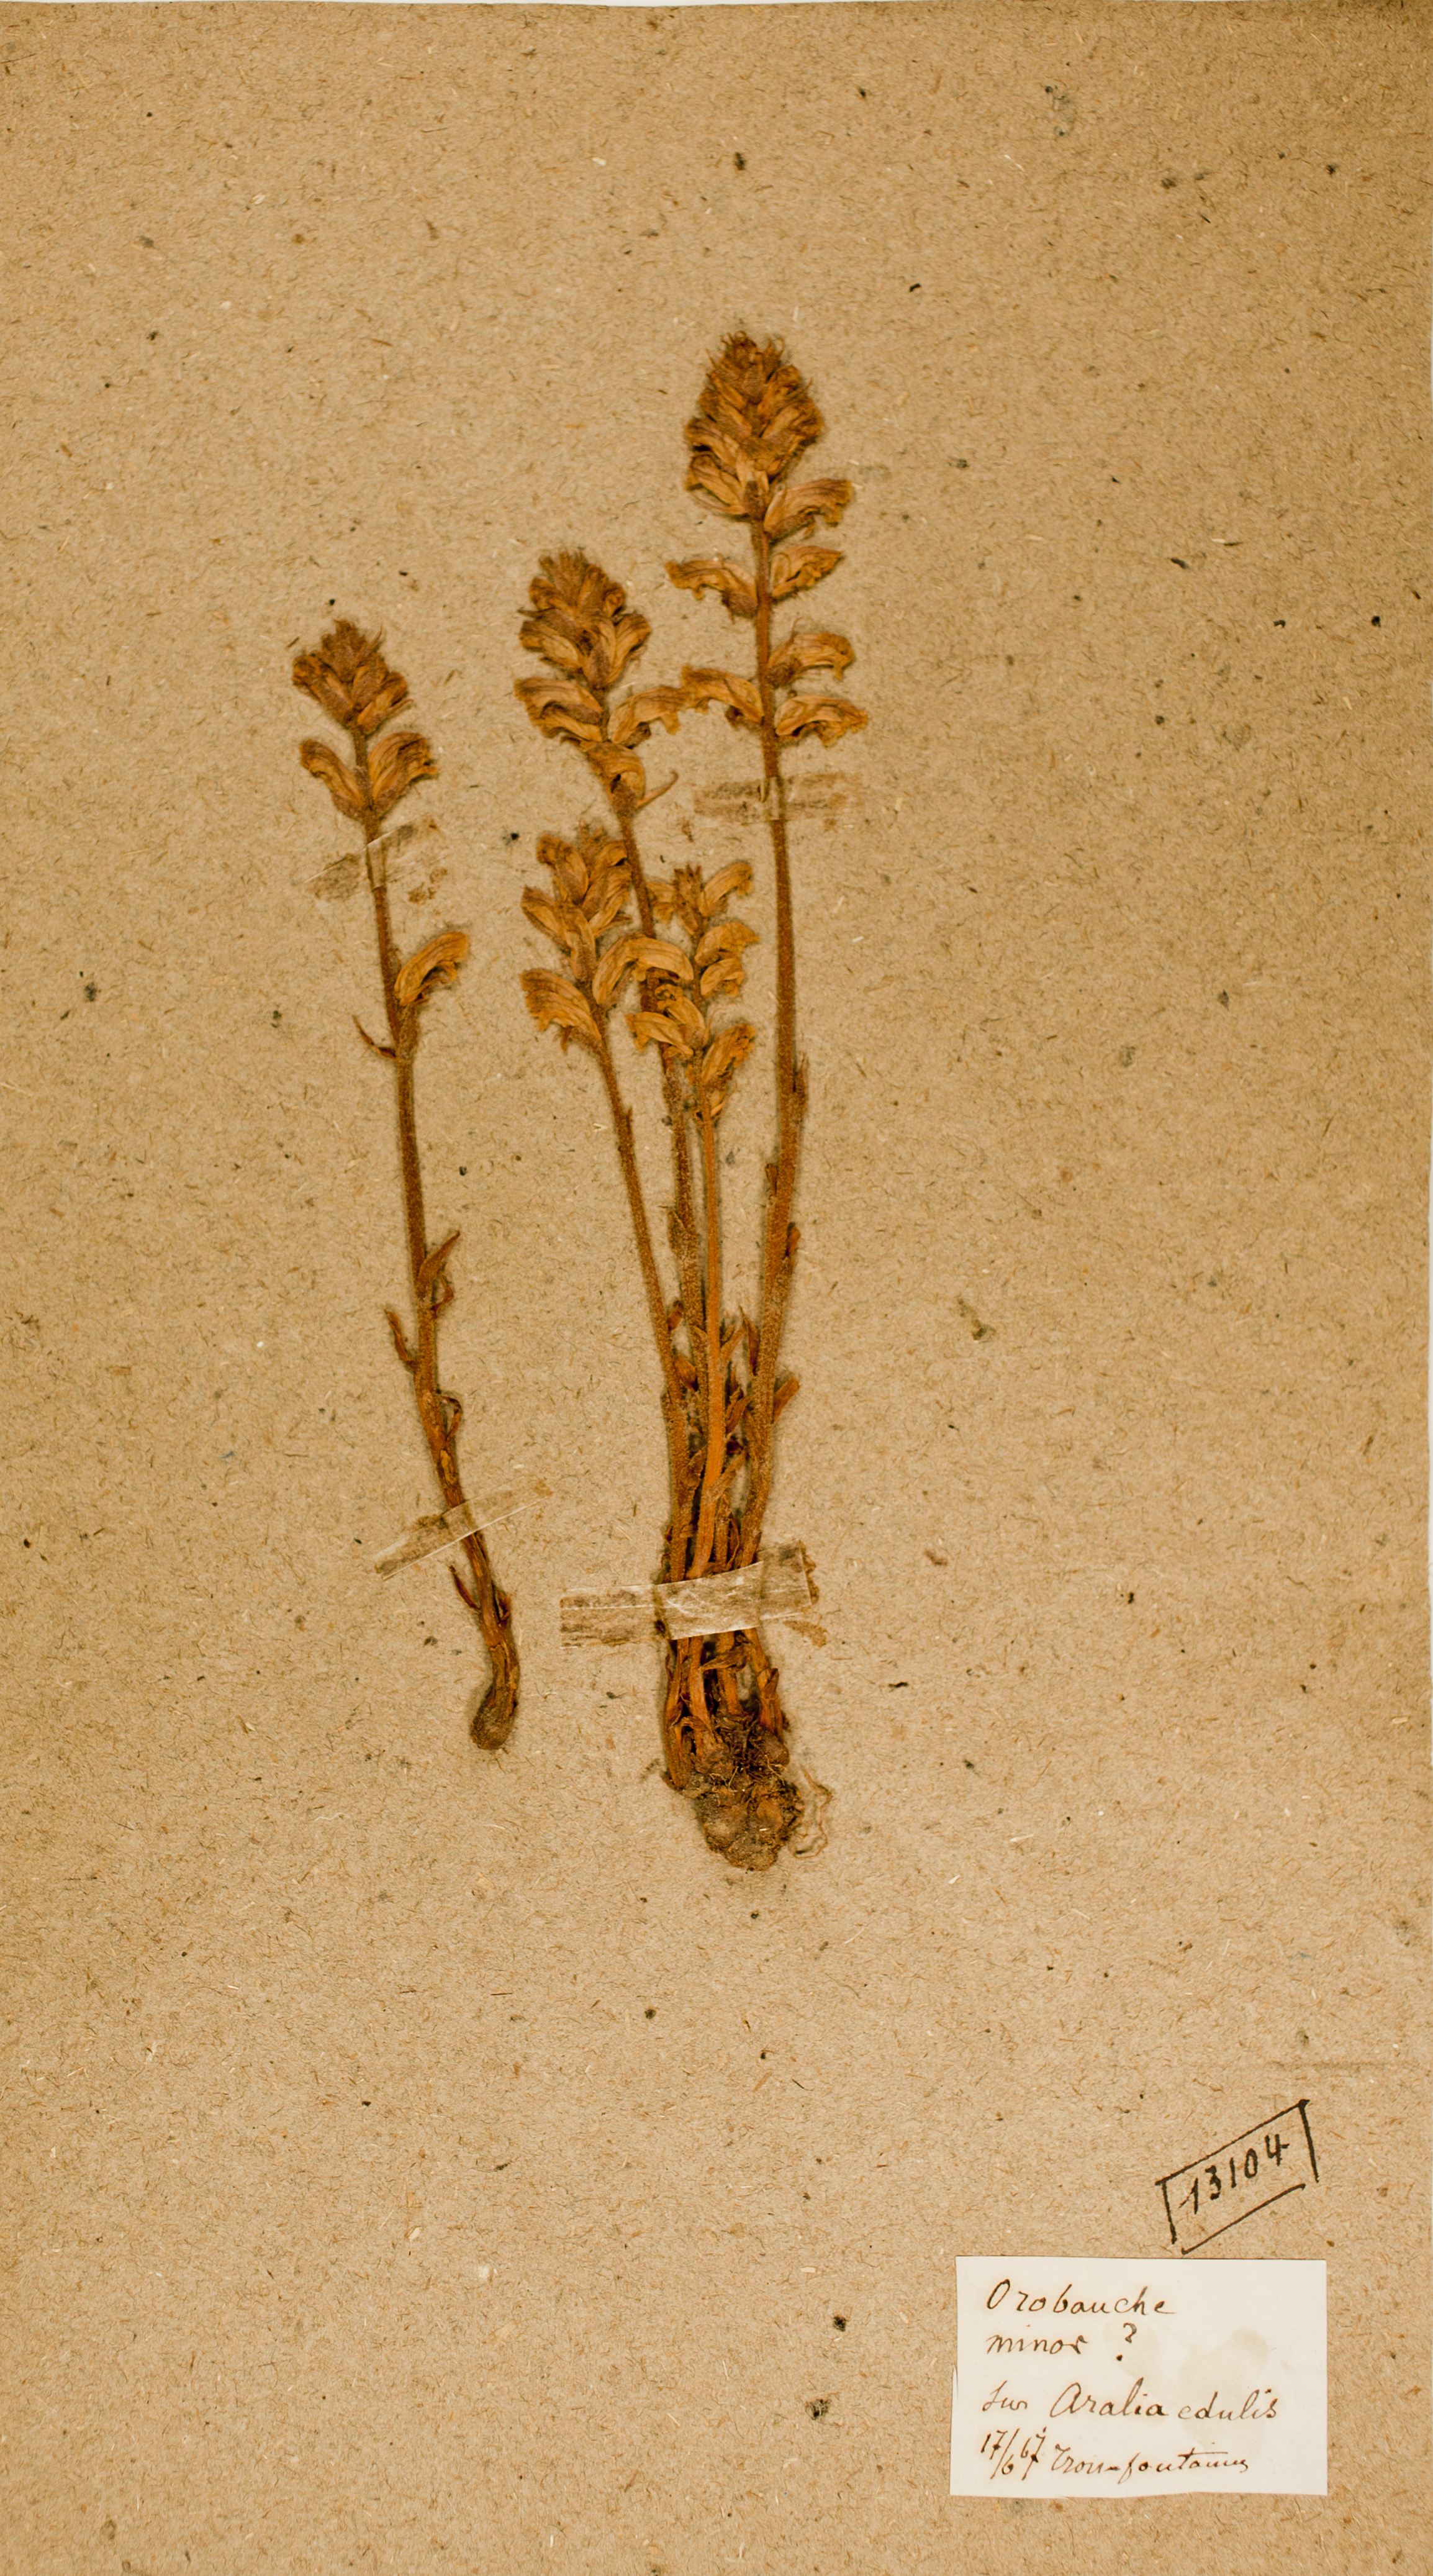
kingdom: Plantae
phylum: Tracheophyta
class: Magnoliopsida
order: Lamiales
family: Orobanchaceae
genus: Orobanche
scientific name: Orobanche minor
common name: Common broomrape
